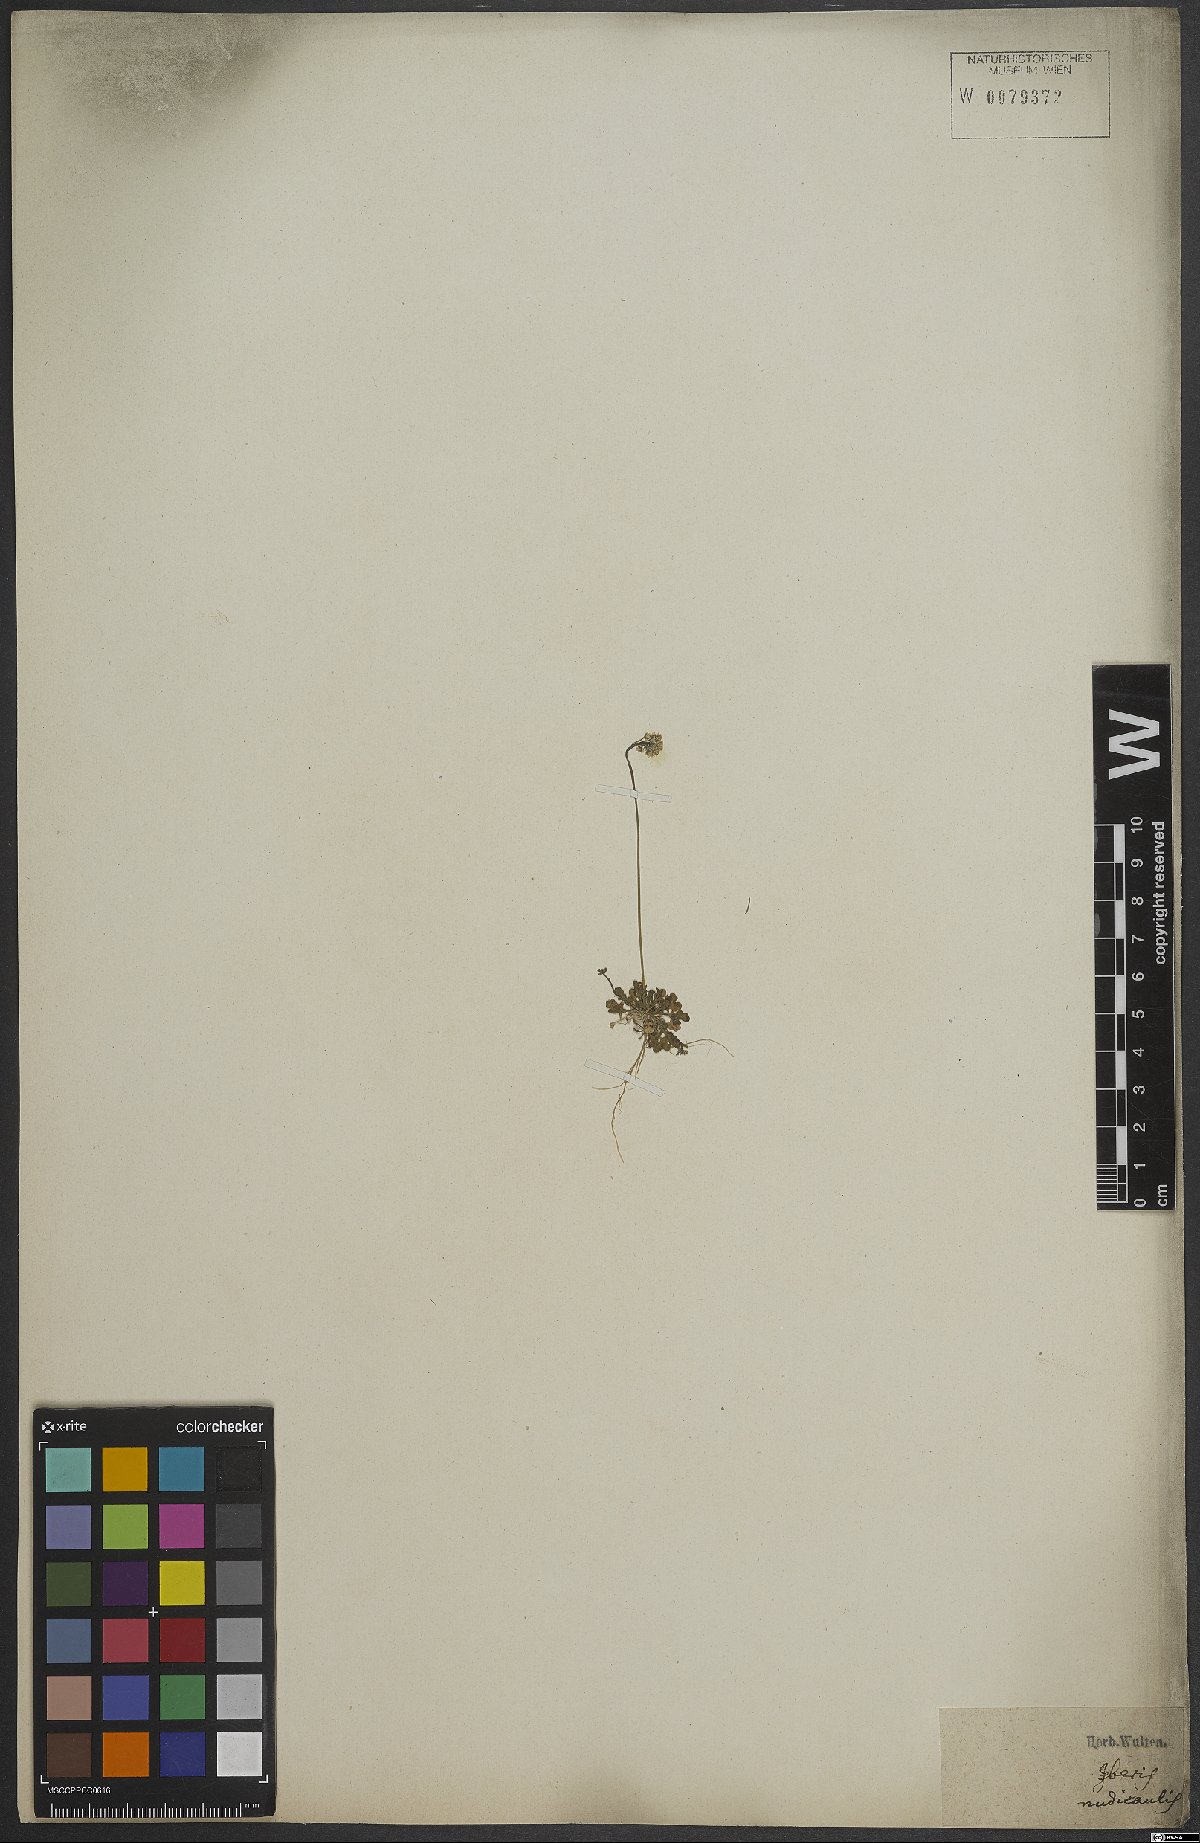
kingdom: Plantae
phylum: Tracheophyta
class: Magnoliopsida
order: Brassicales
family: Brassicaceae
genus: Teesdalia
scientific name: Teesdalia nudicaulis
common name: Shepherd's cress
